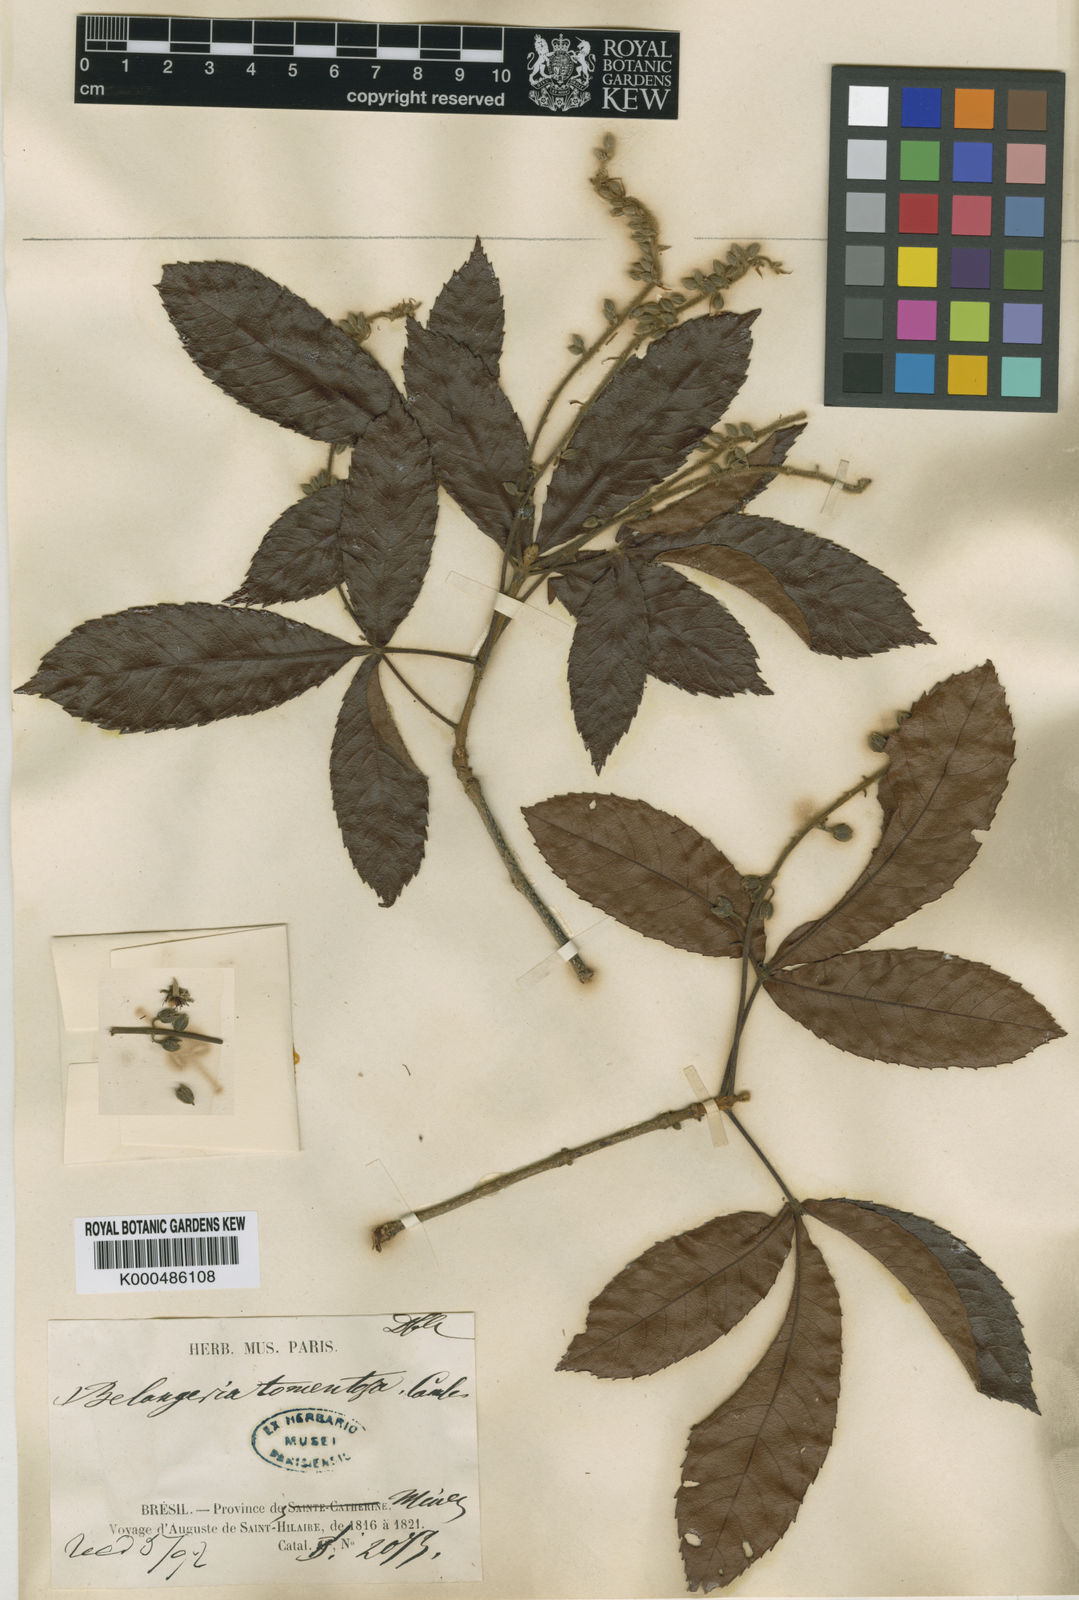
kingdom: Plantae
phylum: Tracheophyta
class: Magnoliopsida
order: Oxalidales
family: Cunoniaceae
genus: Lamanonia
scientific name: Lamanonia ternata
